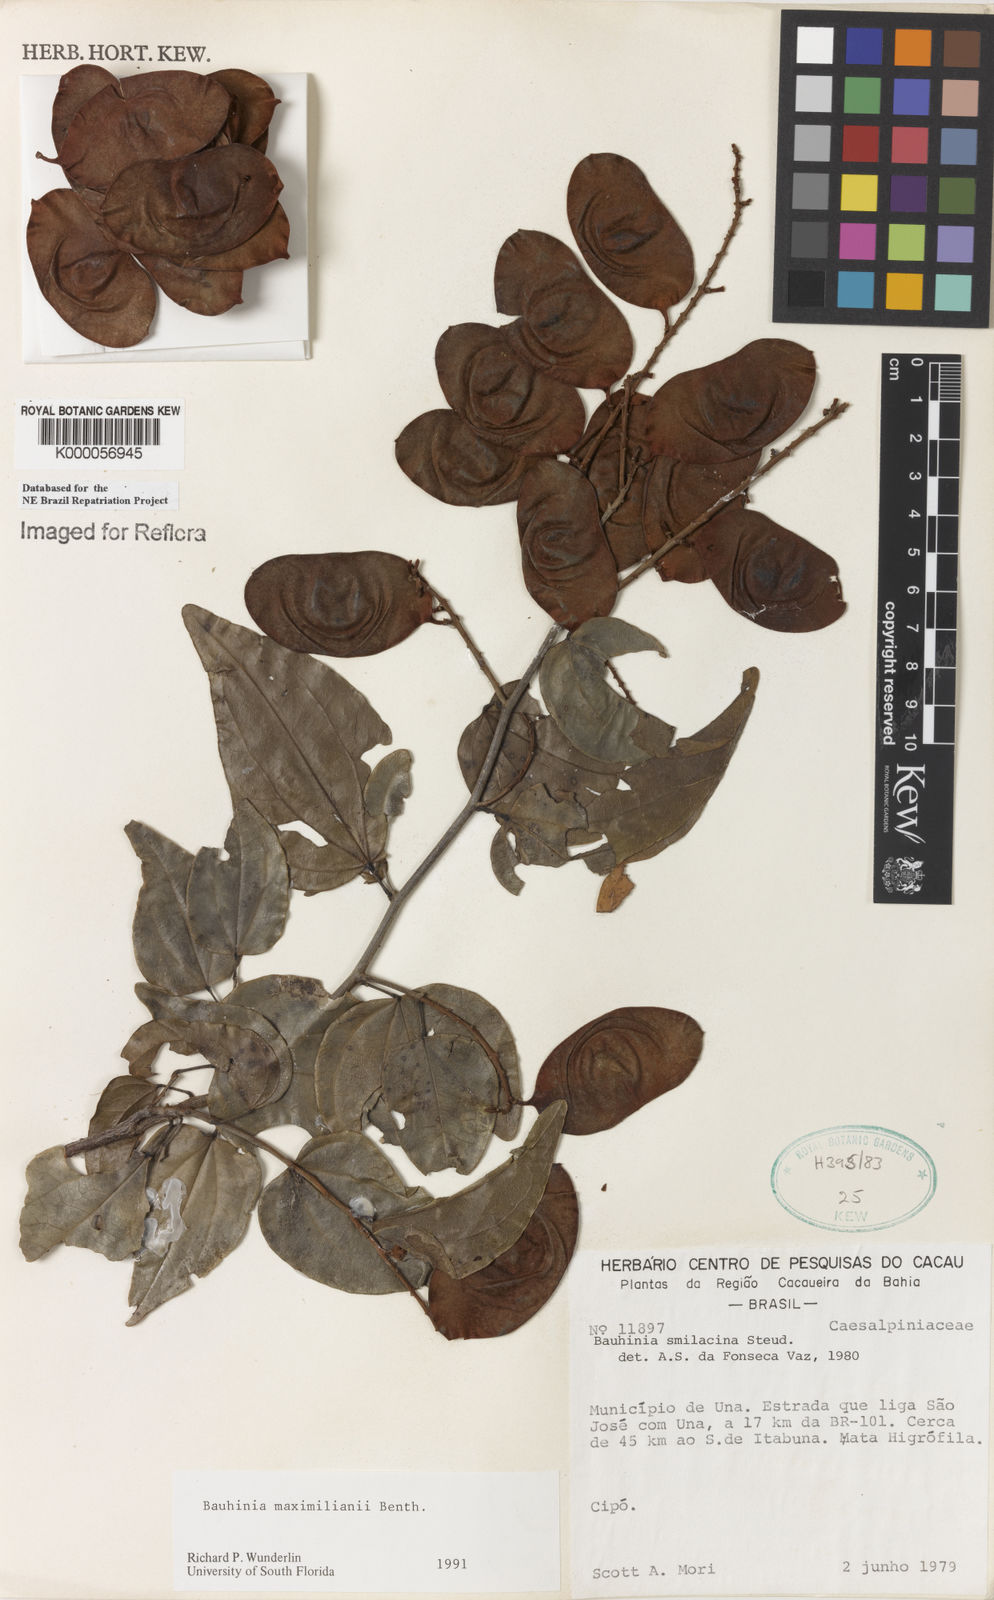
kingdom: Plantae
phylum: Tracheophyta
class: Magnoliopsida
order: Fabales
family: Fabaceae
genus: Schnella
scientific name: Schnella maximiliani
